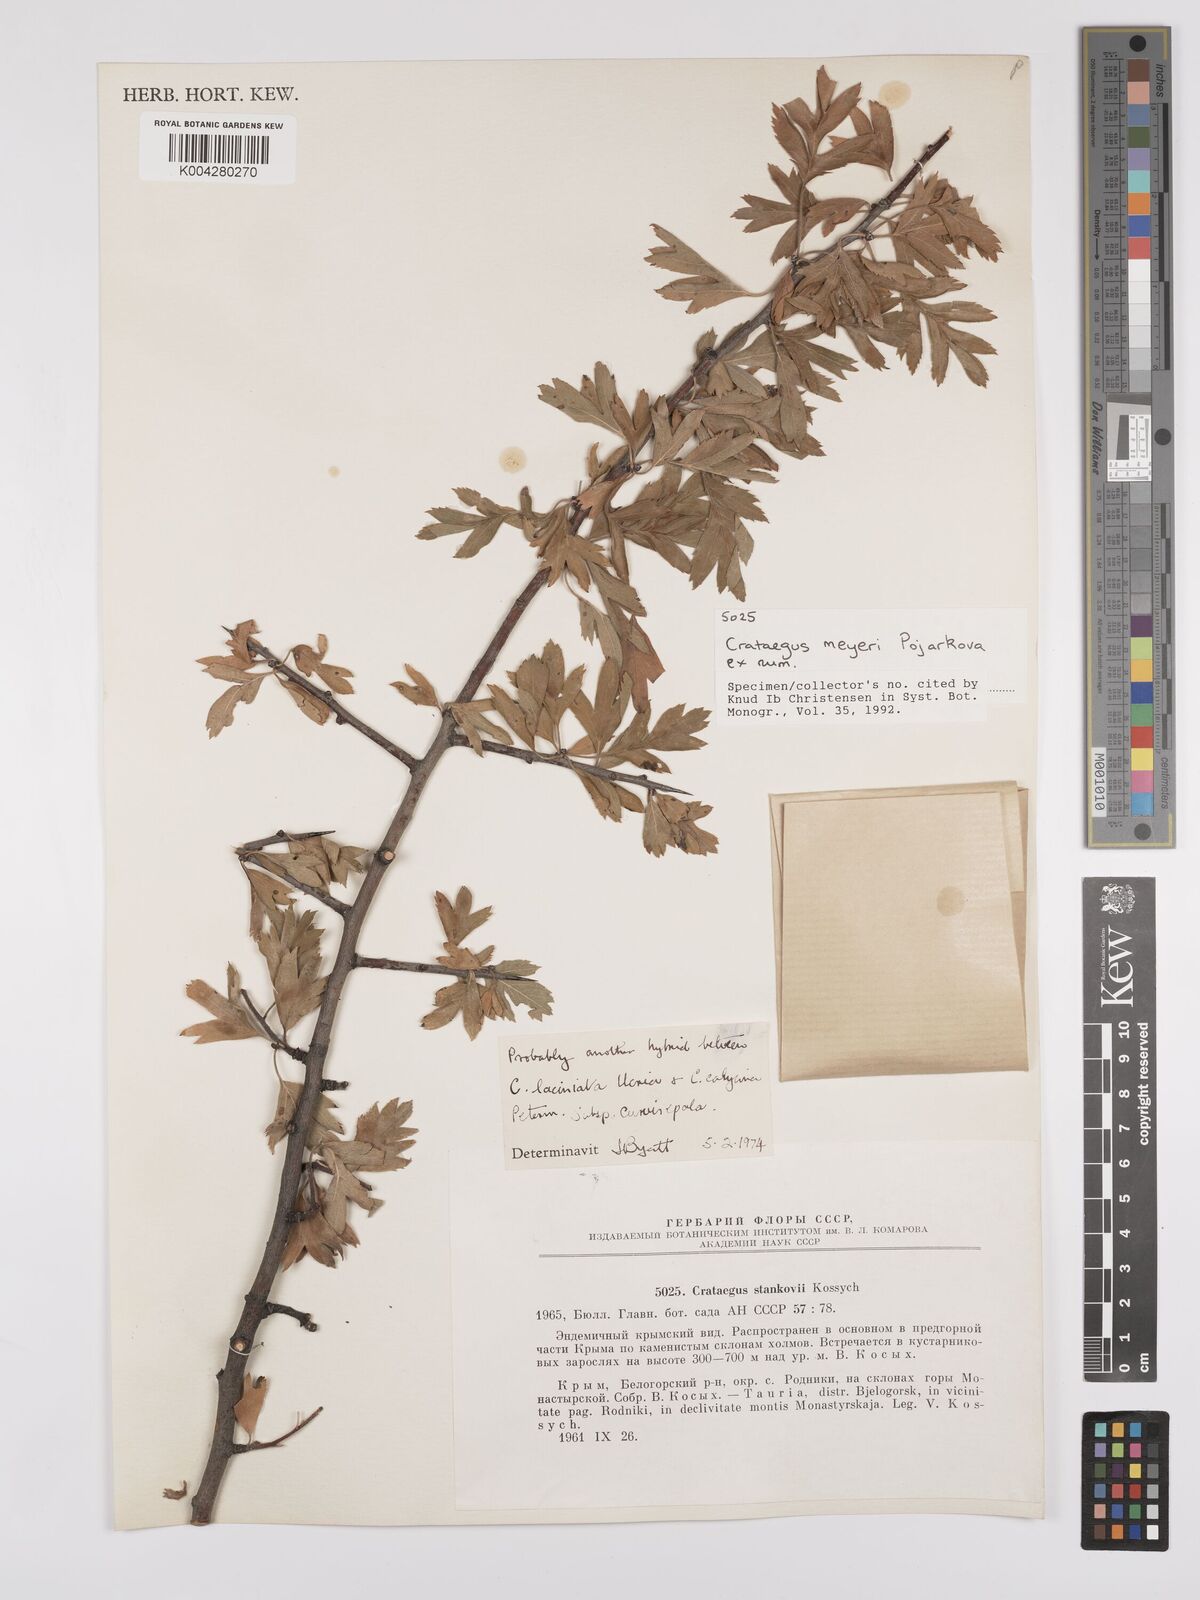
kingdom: Plantae
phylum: Tracheophyta
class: Magnoliopsida
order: Rosales
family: Rosaceae
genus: Crataegus
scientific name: Crataegus meyeri
